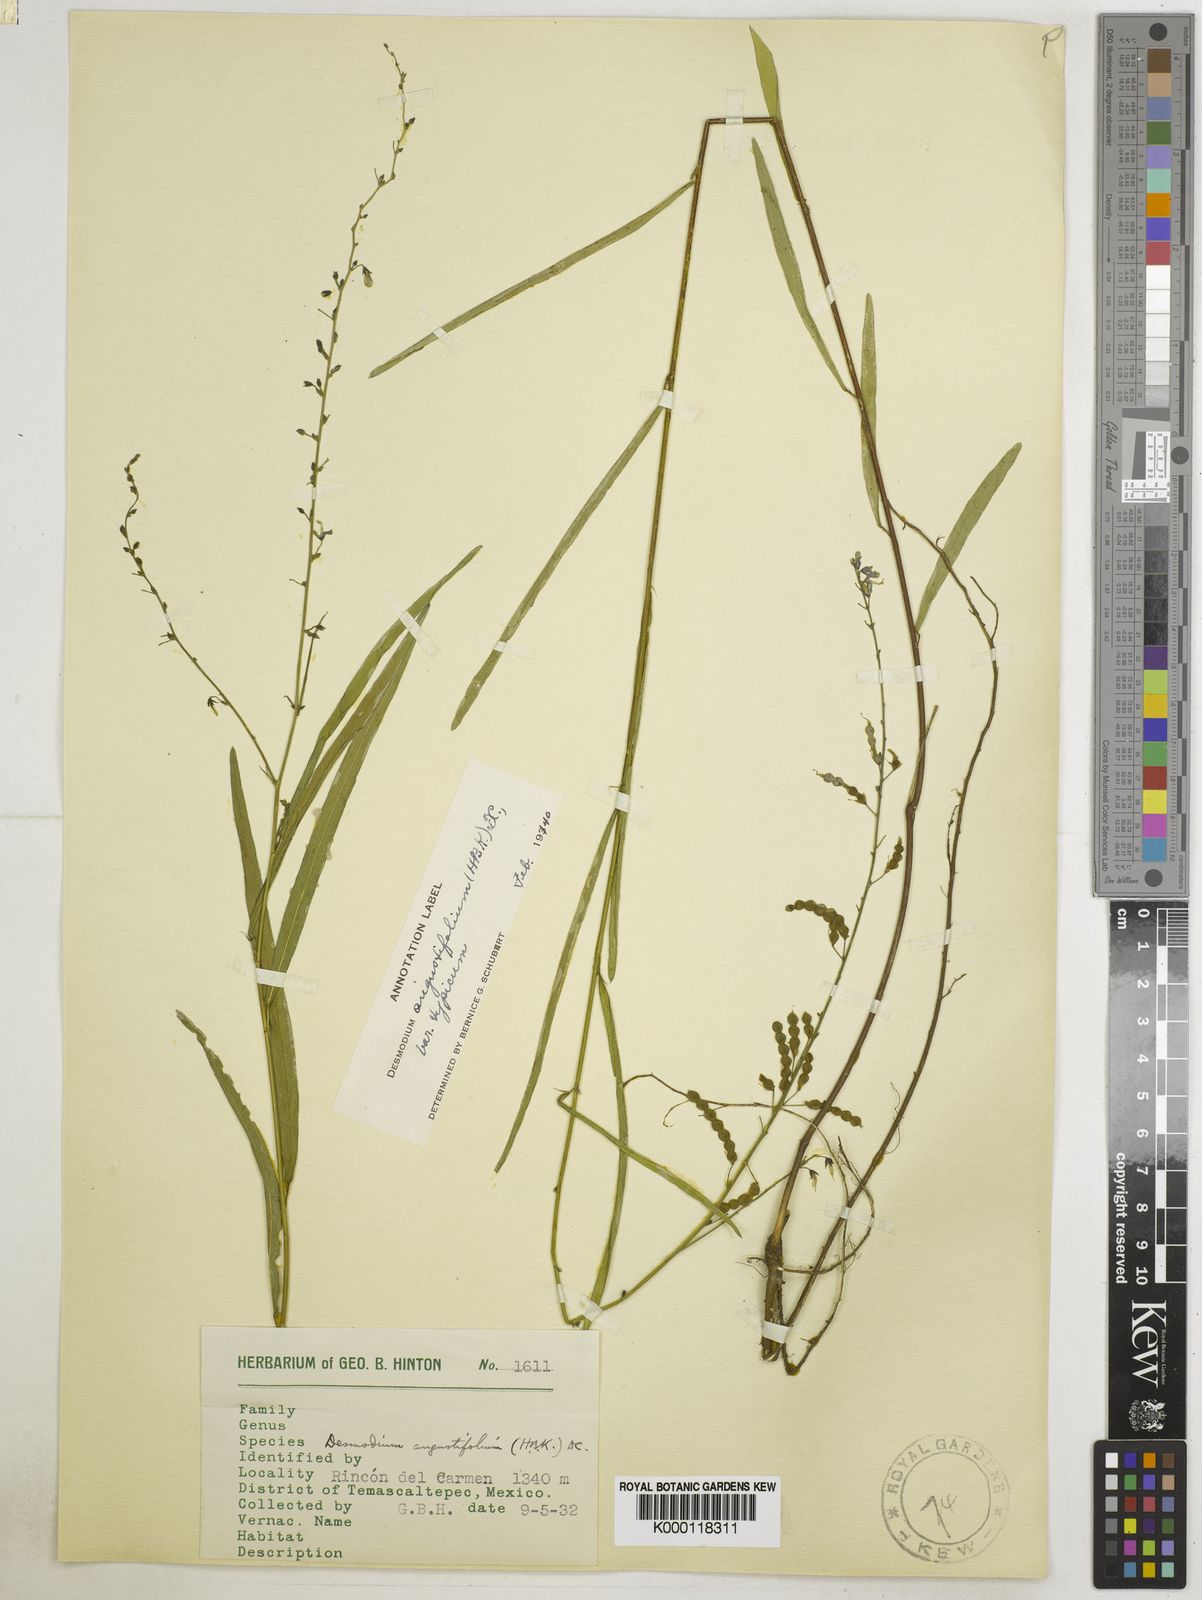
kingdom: Plantae
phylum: Tracheophyta
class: Magnoliopsida
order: Fabales
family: Fabaceae
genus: Desmodium
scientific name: Desmodium angustifolium
